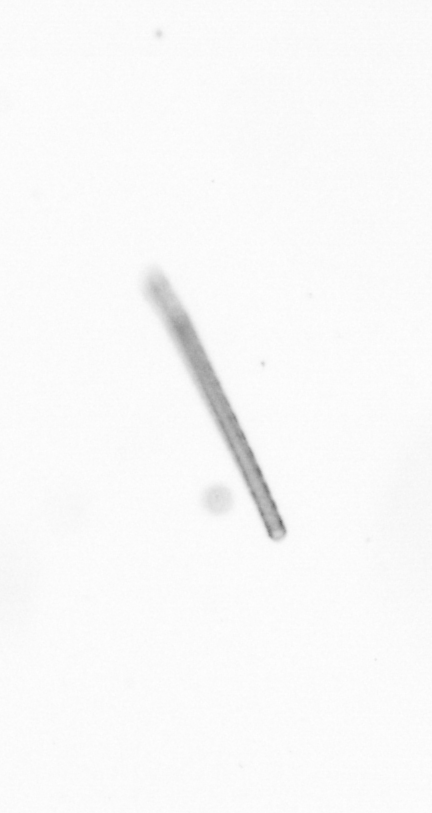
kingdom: Chromista
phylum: Ochrophyta
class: Bacillariophyceae
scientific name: Bacillariophyceae
